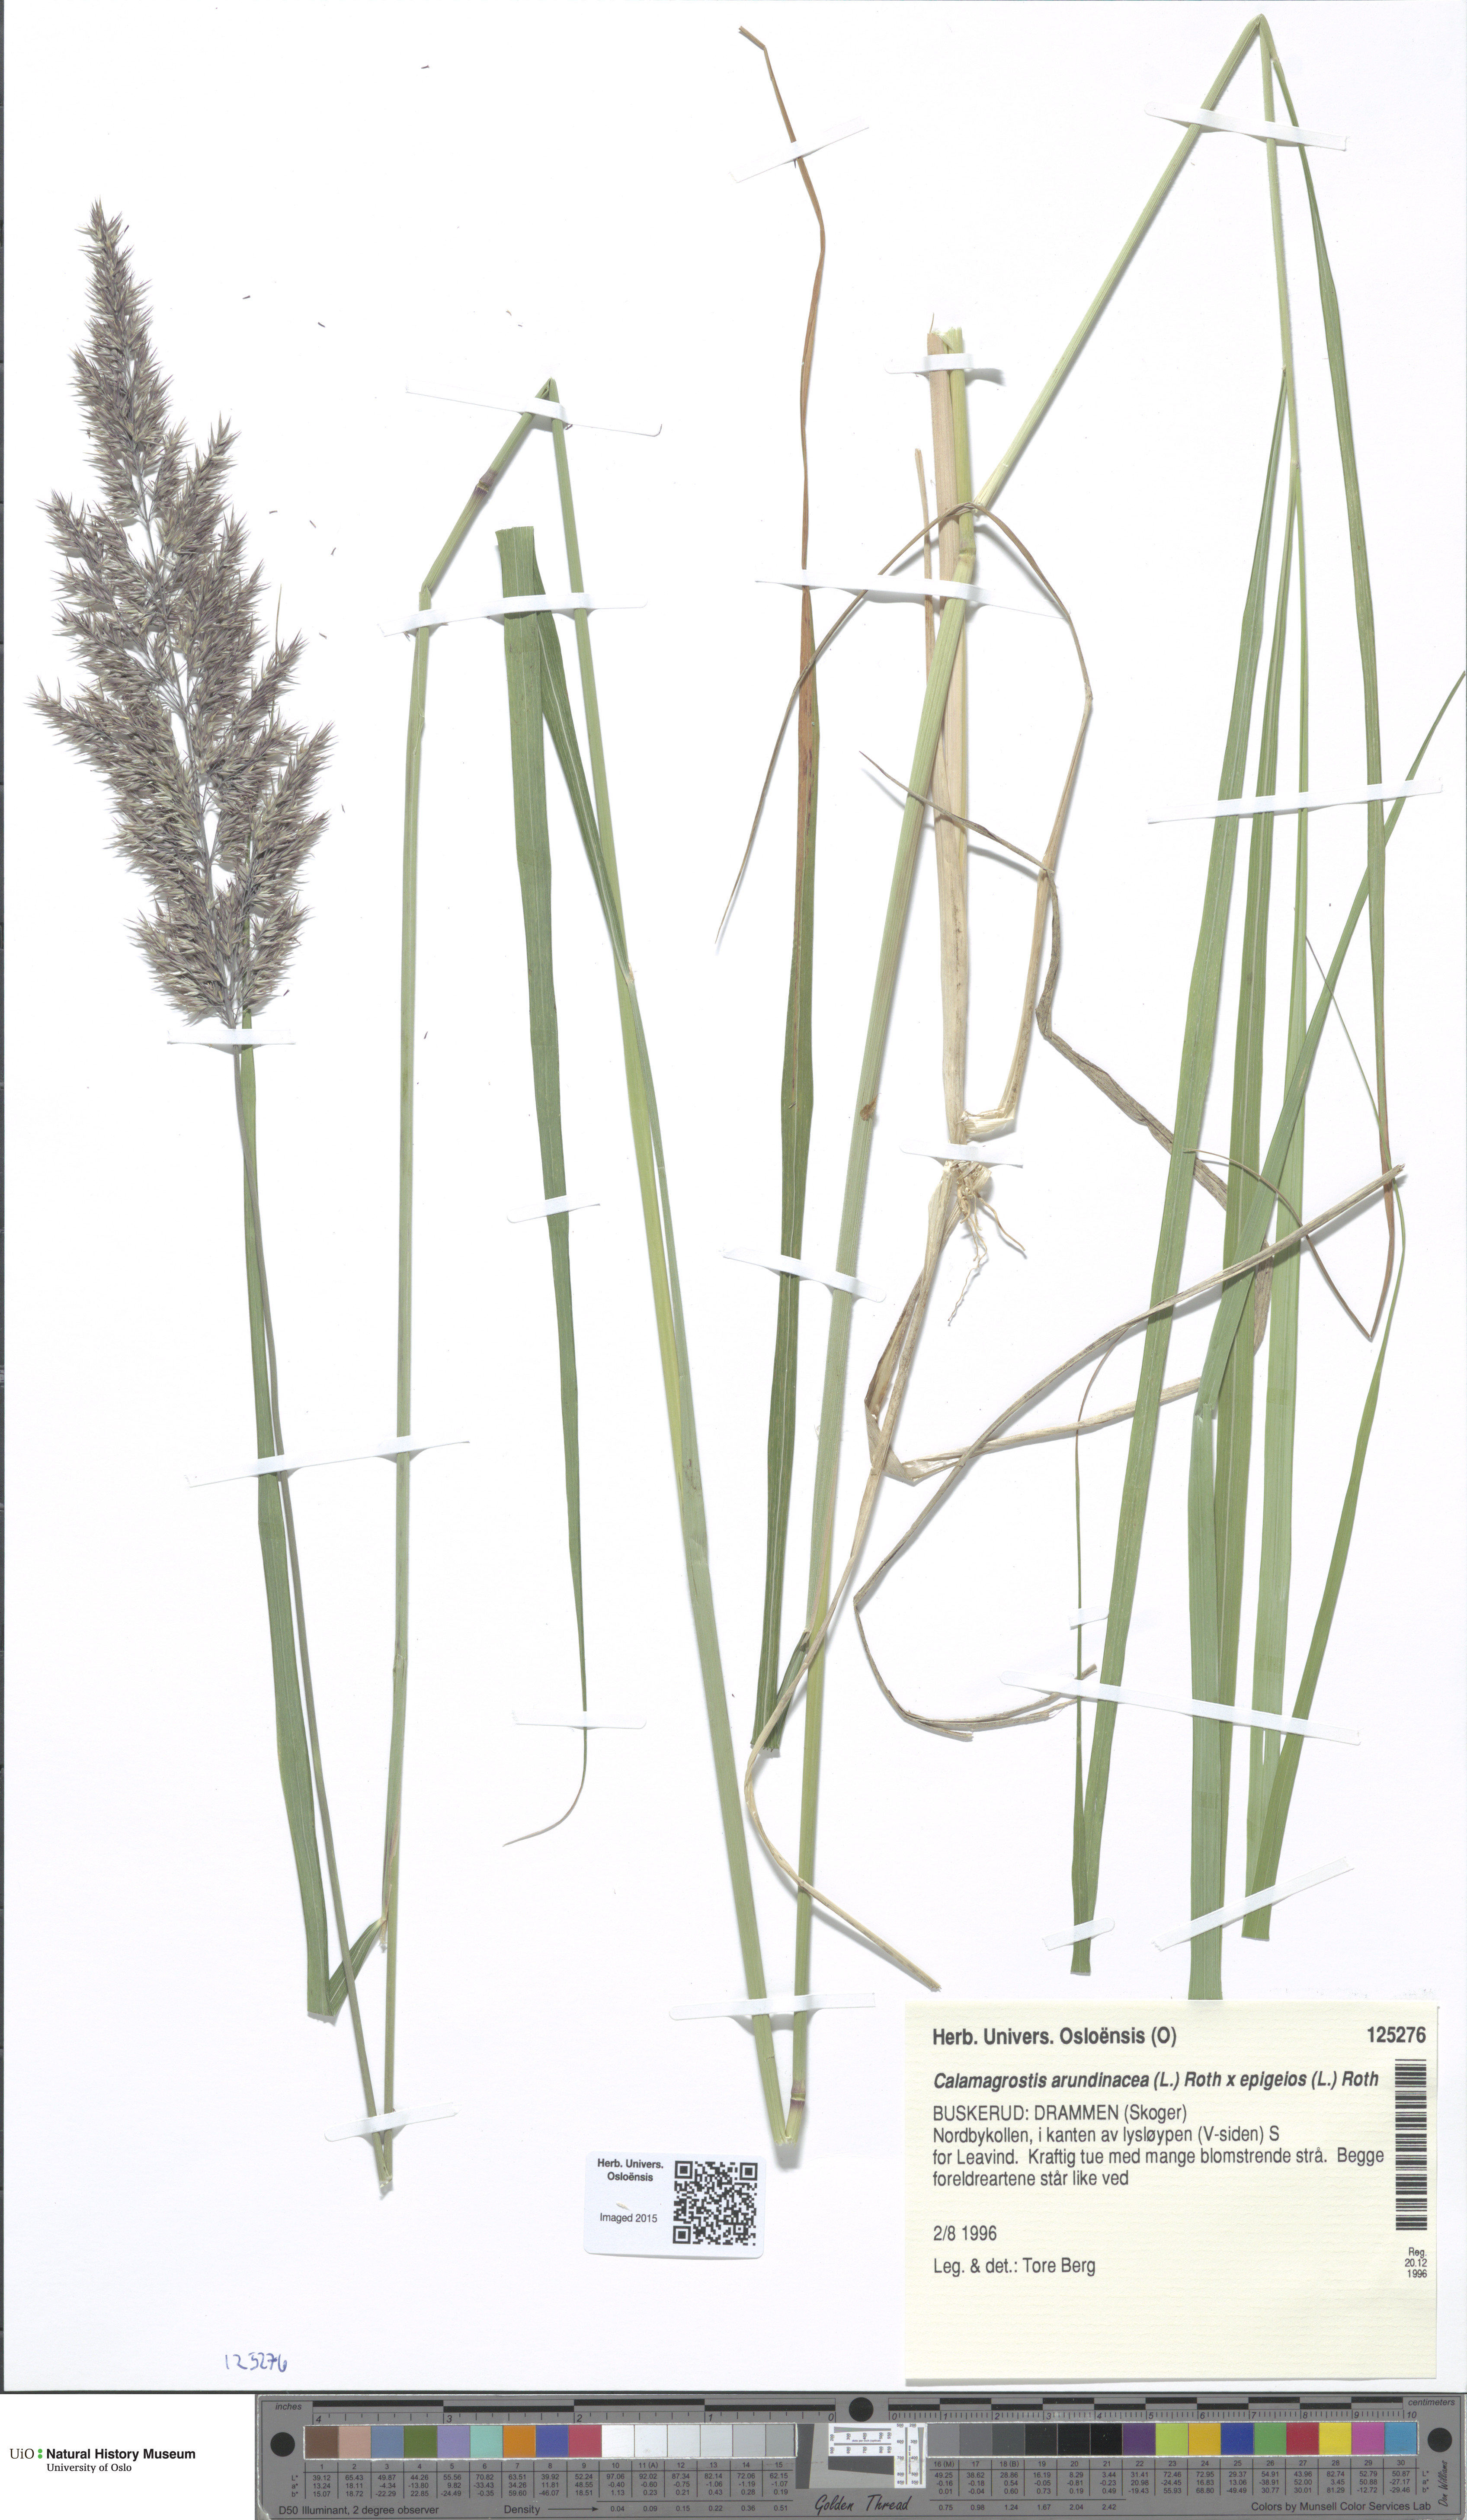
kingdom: Plantae
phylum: Tracheophyta
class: Liliopsida
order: Poales
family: Poaceae
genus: Calamagrostis
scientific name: Calamagrostis
